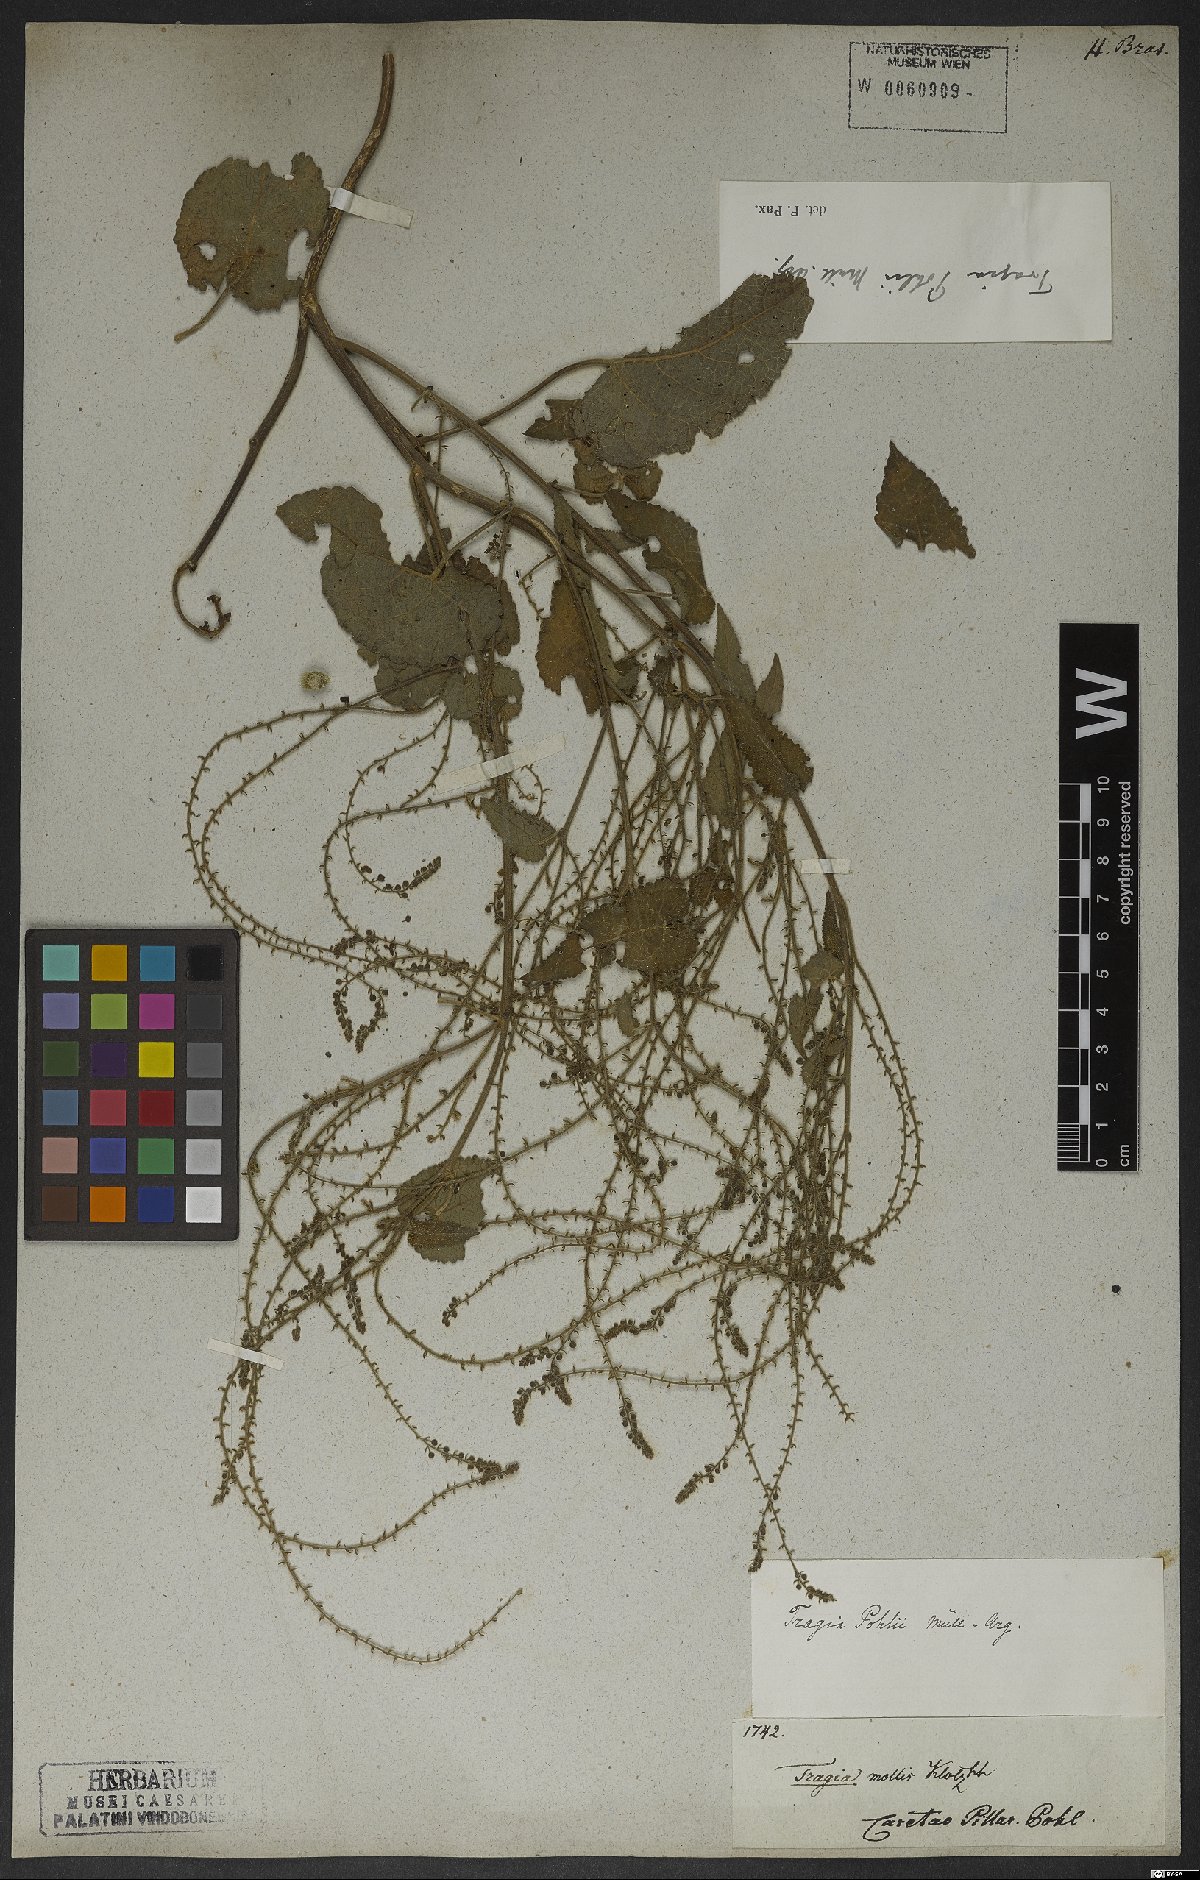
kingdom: Plantae
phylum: Tracheophyta
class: Magnoliopsida
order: Malpighiales
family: Euphorbiaceae
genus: Tragia
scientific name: Tragia chlorocaulon
